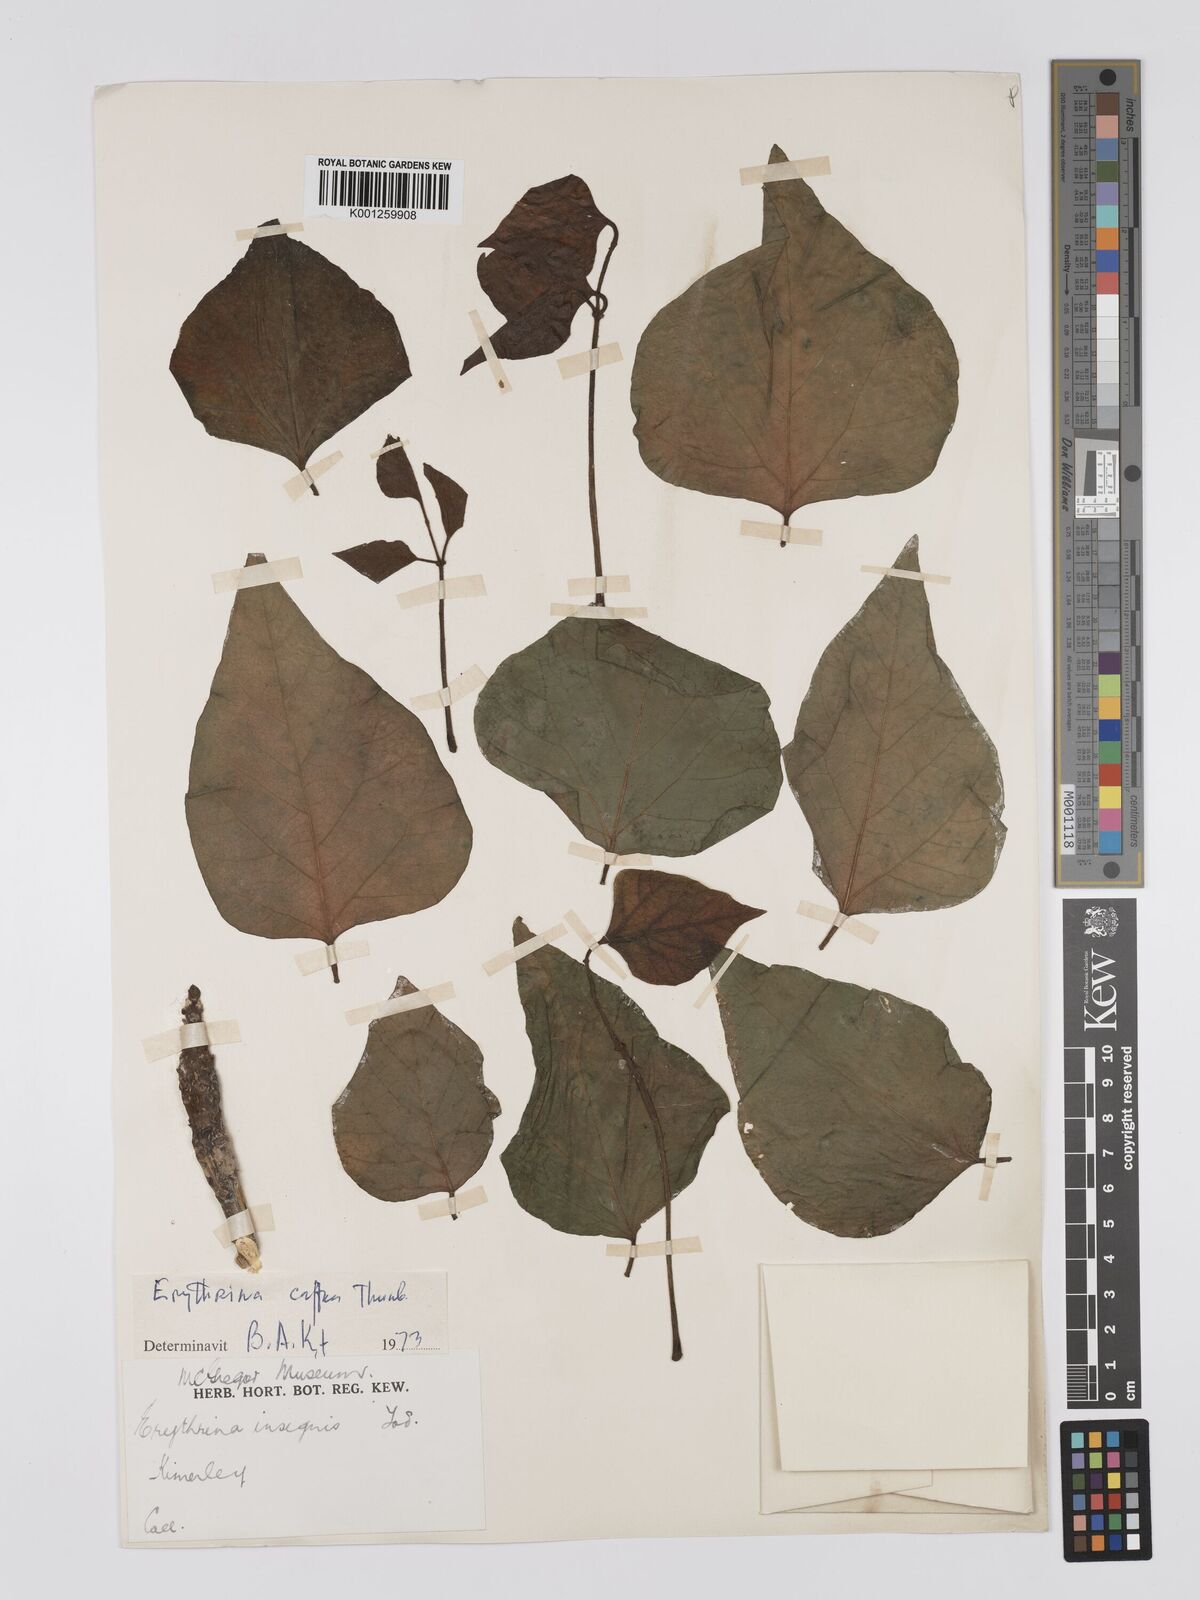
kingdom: Plantae
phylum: Tracheophyta
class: Magnoliopsida
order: Fabales
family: Fabaceae
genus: Erythrina
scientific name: Erythrina caffra
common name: Coast coral tree
